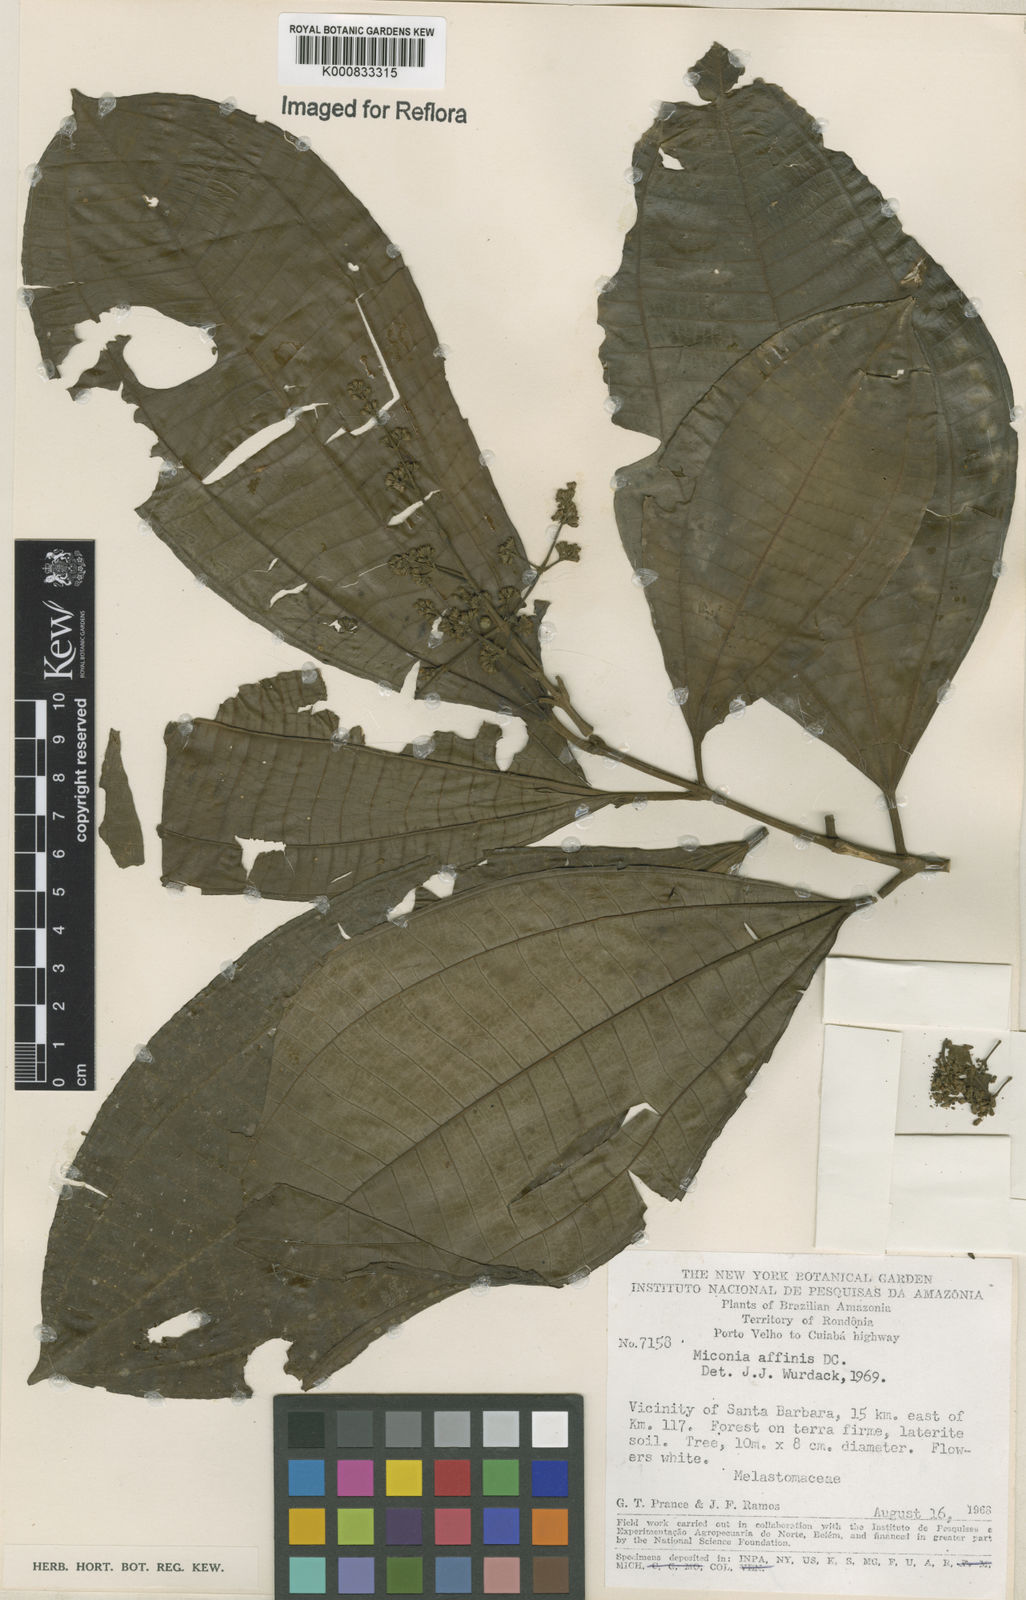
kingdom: Plantae
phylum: Tracheophyta
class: Magnoliopsida
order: Myrtales
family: Melastomataceae
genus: Miconia
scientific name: Miconia affinis
